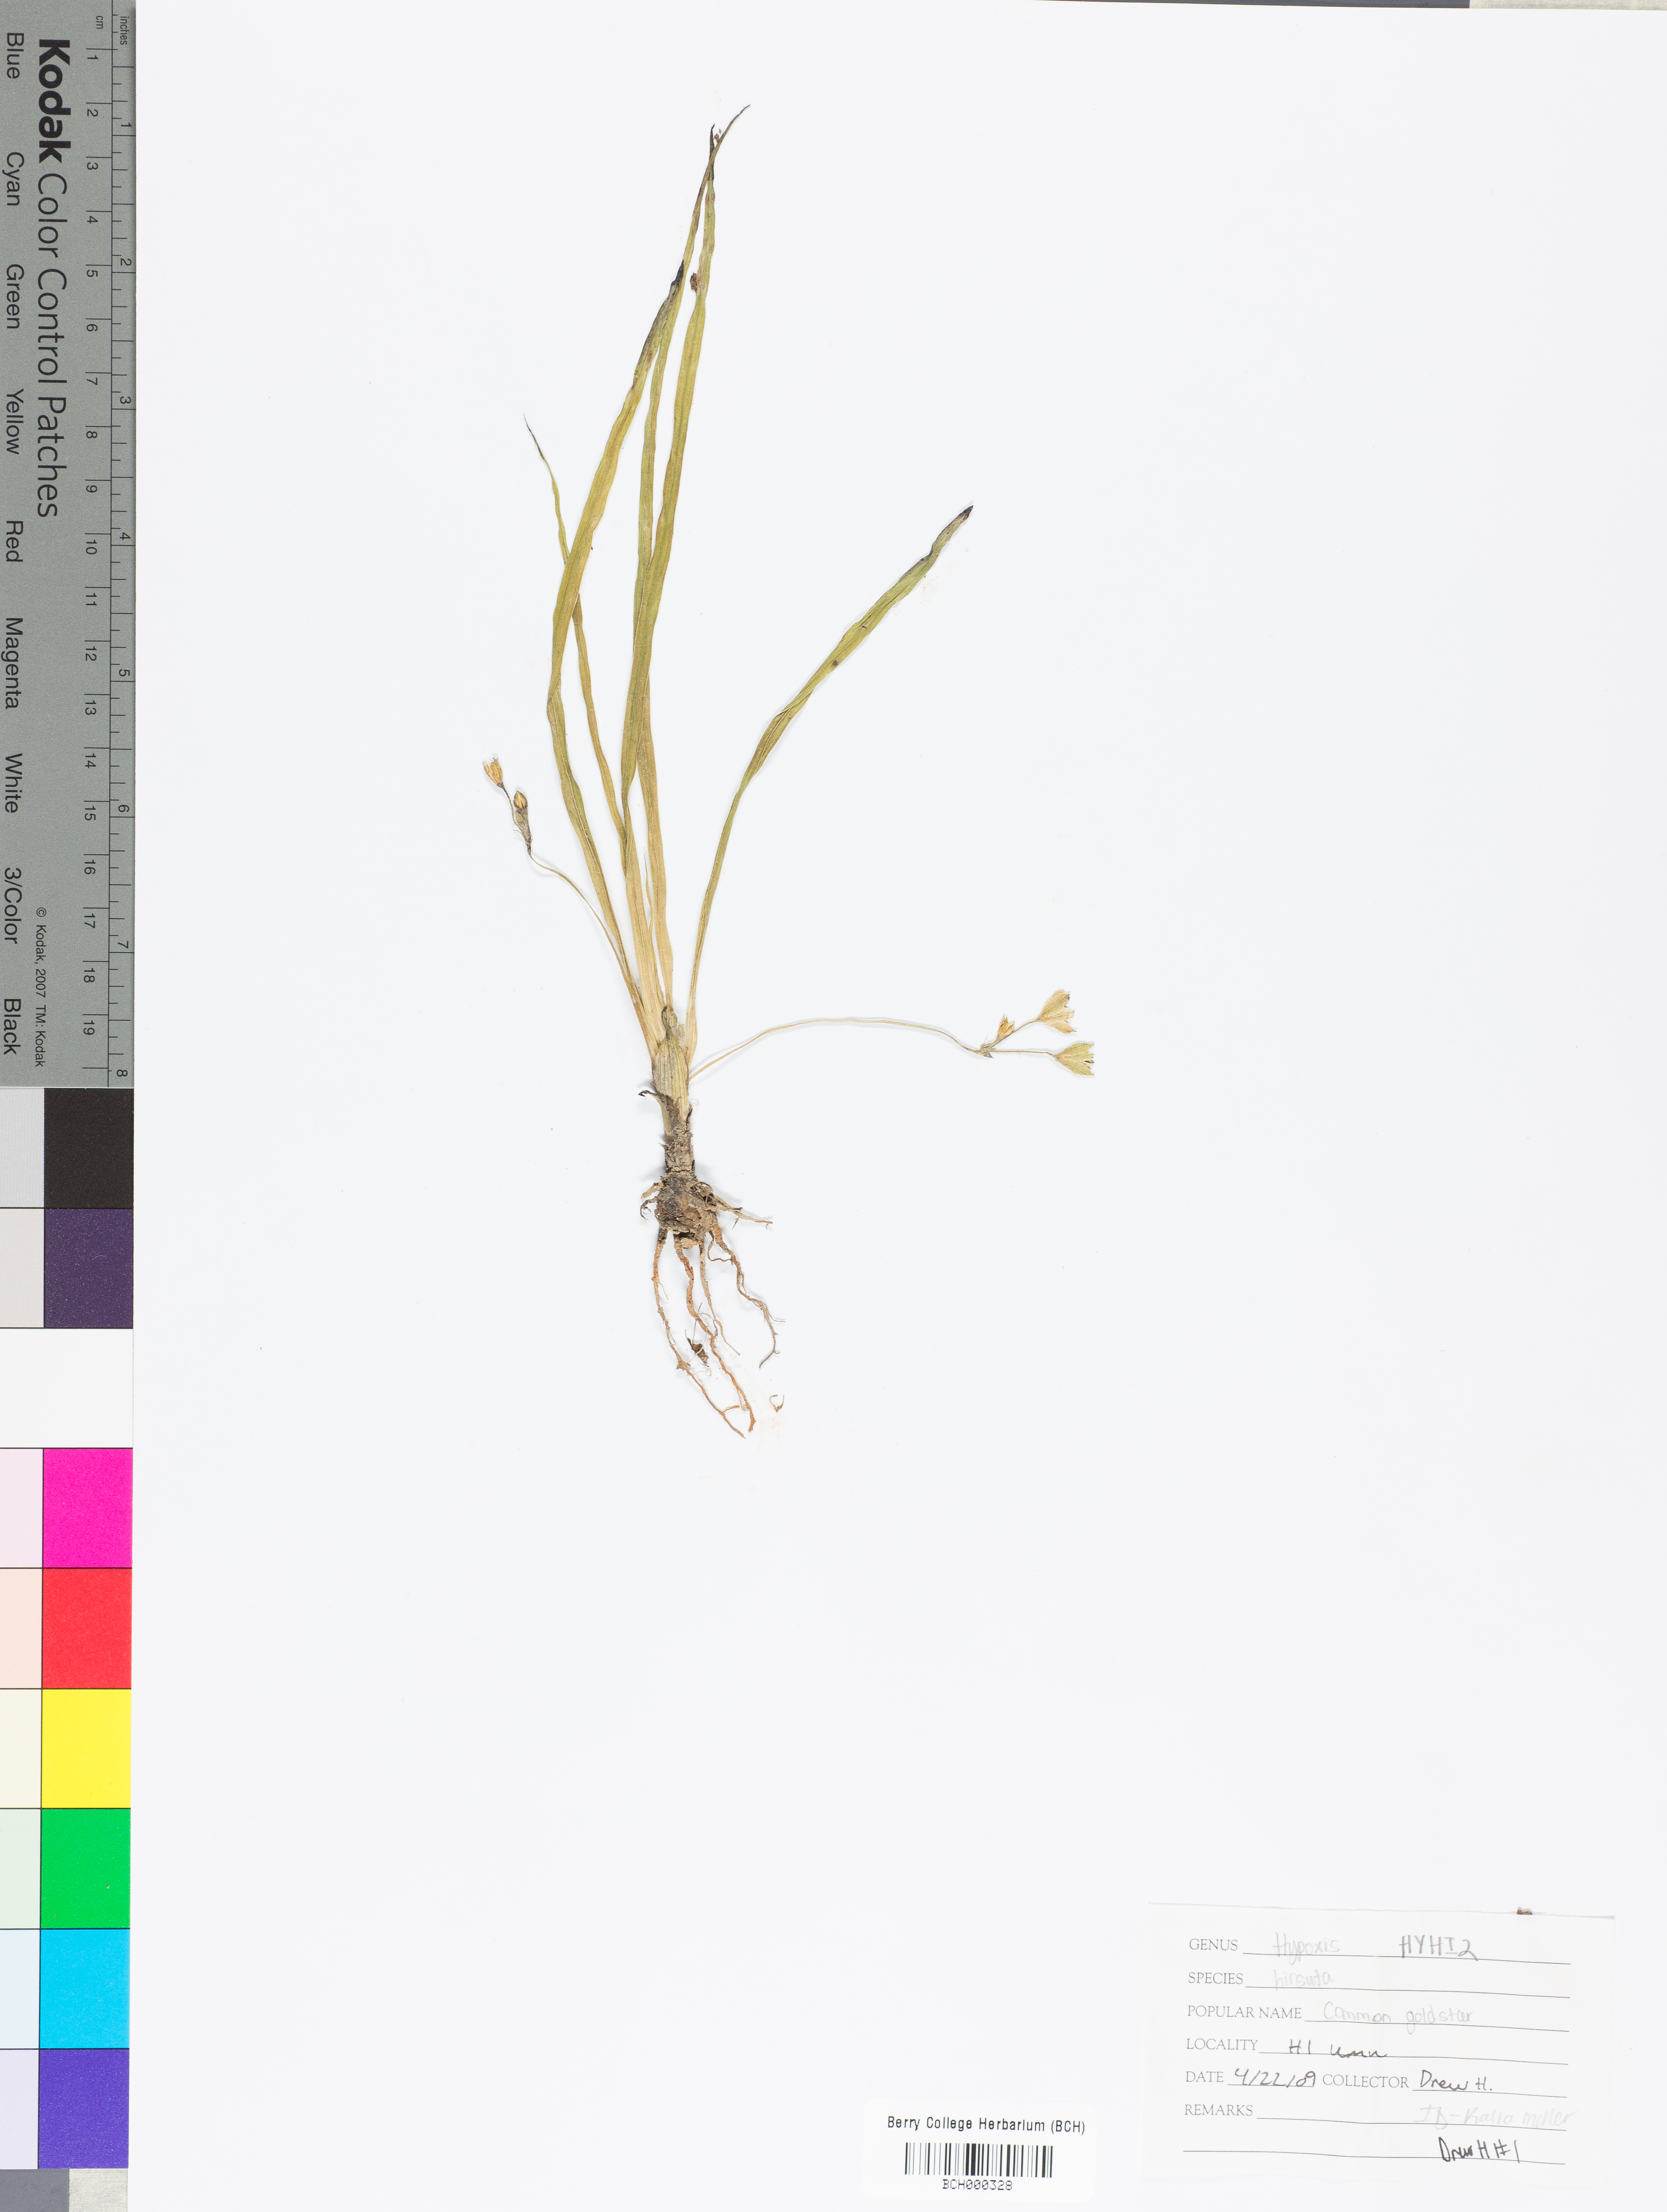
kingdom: Plantae
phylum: Tracheophyta
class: Liliopsida
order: Asparagales
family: Hypoxidaceae
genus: Hypoxis
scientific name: Hypoxis hirsuta
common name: Common goldstar
